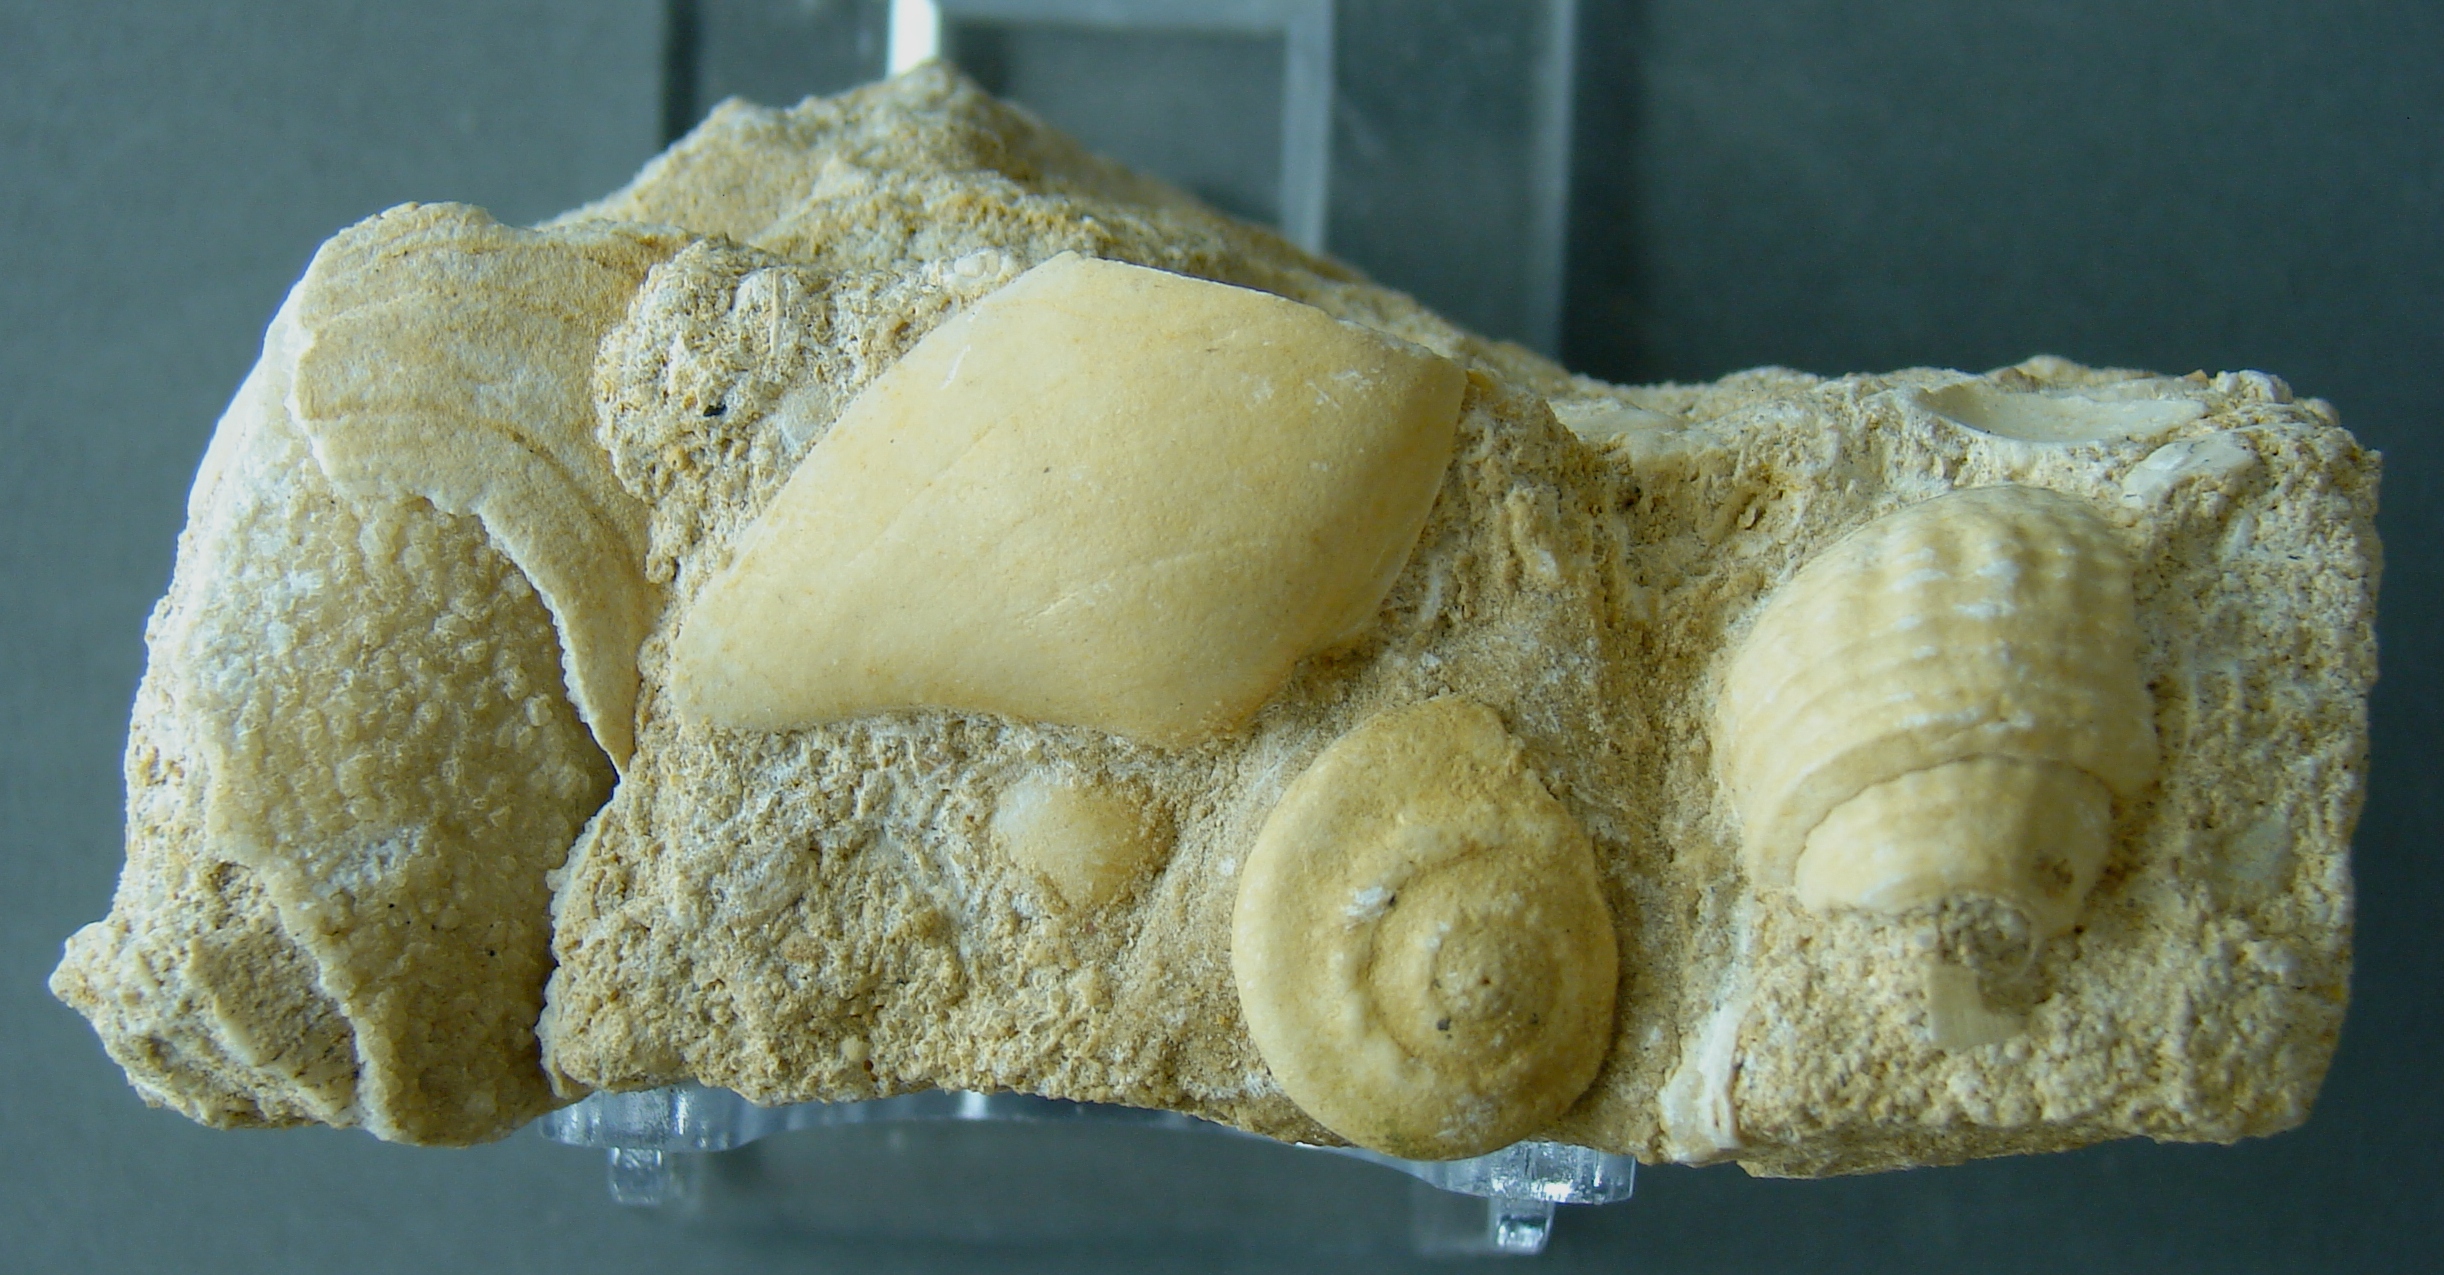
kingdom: Animalia
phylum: Mollusca
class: Gastropoda
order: Pleurotomariida
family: Ptychomphalidae
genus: Ptychomphalus
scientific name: Ptychomphalus Pleurotomaria wehenkeli
